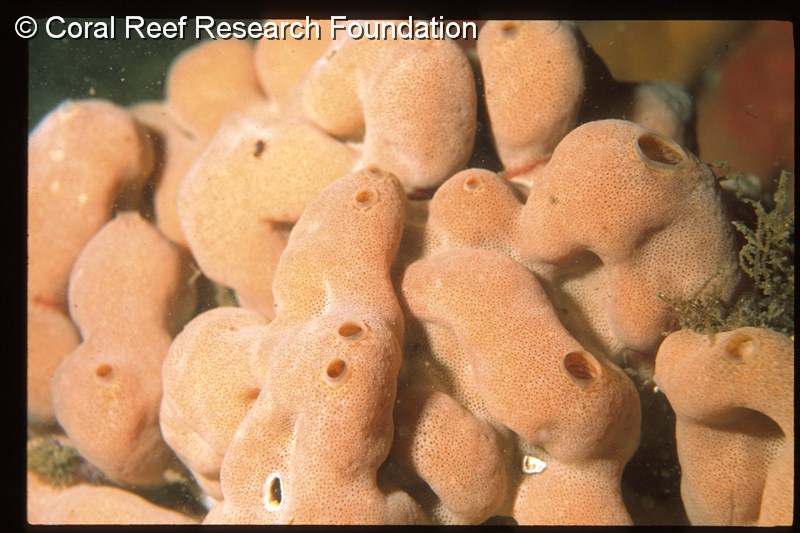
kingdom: Animalia
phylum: Chordata
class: Ascidiacea
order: Aplousobranchia
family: Didemnidae
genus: Atriolum
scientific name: Atriolum
